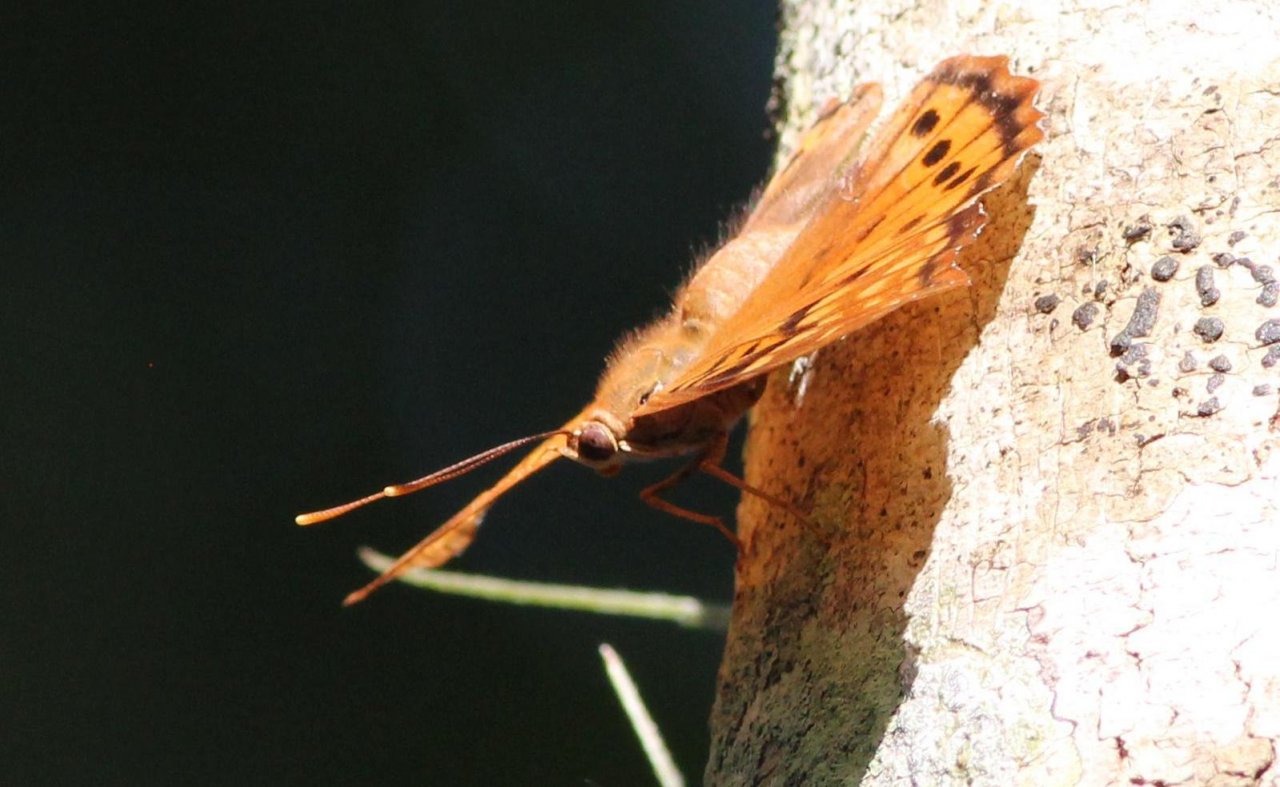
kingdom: Animalia
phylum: Arthropoda
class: Insecta
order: Lepidoptera
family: Nymphalidae
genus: Asterocampa
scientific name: Asterocampa clyton
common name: Tawny Emperor
